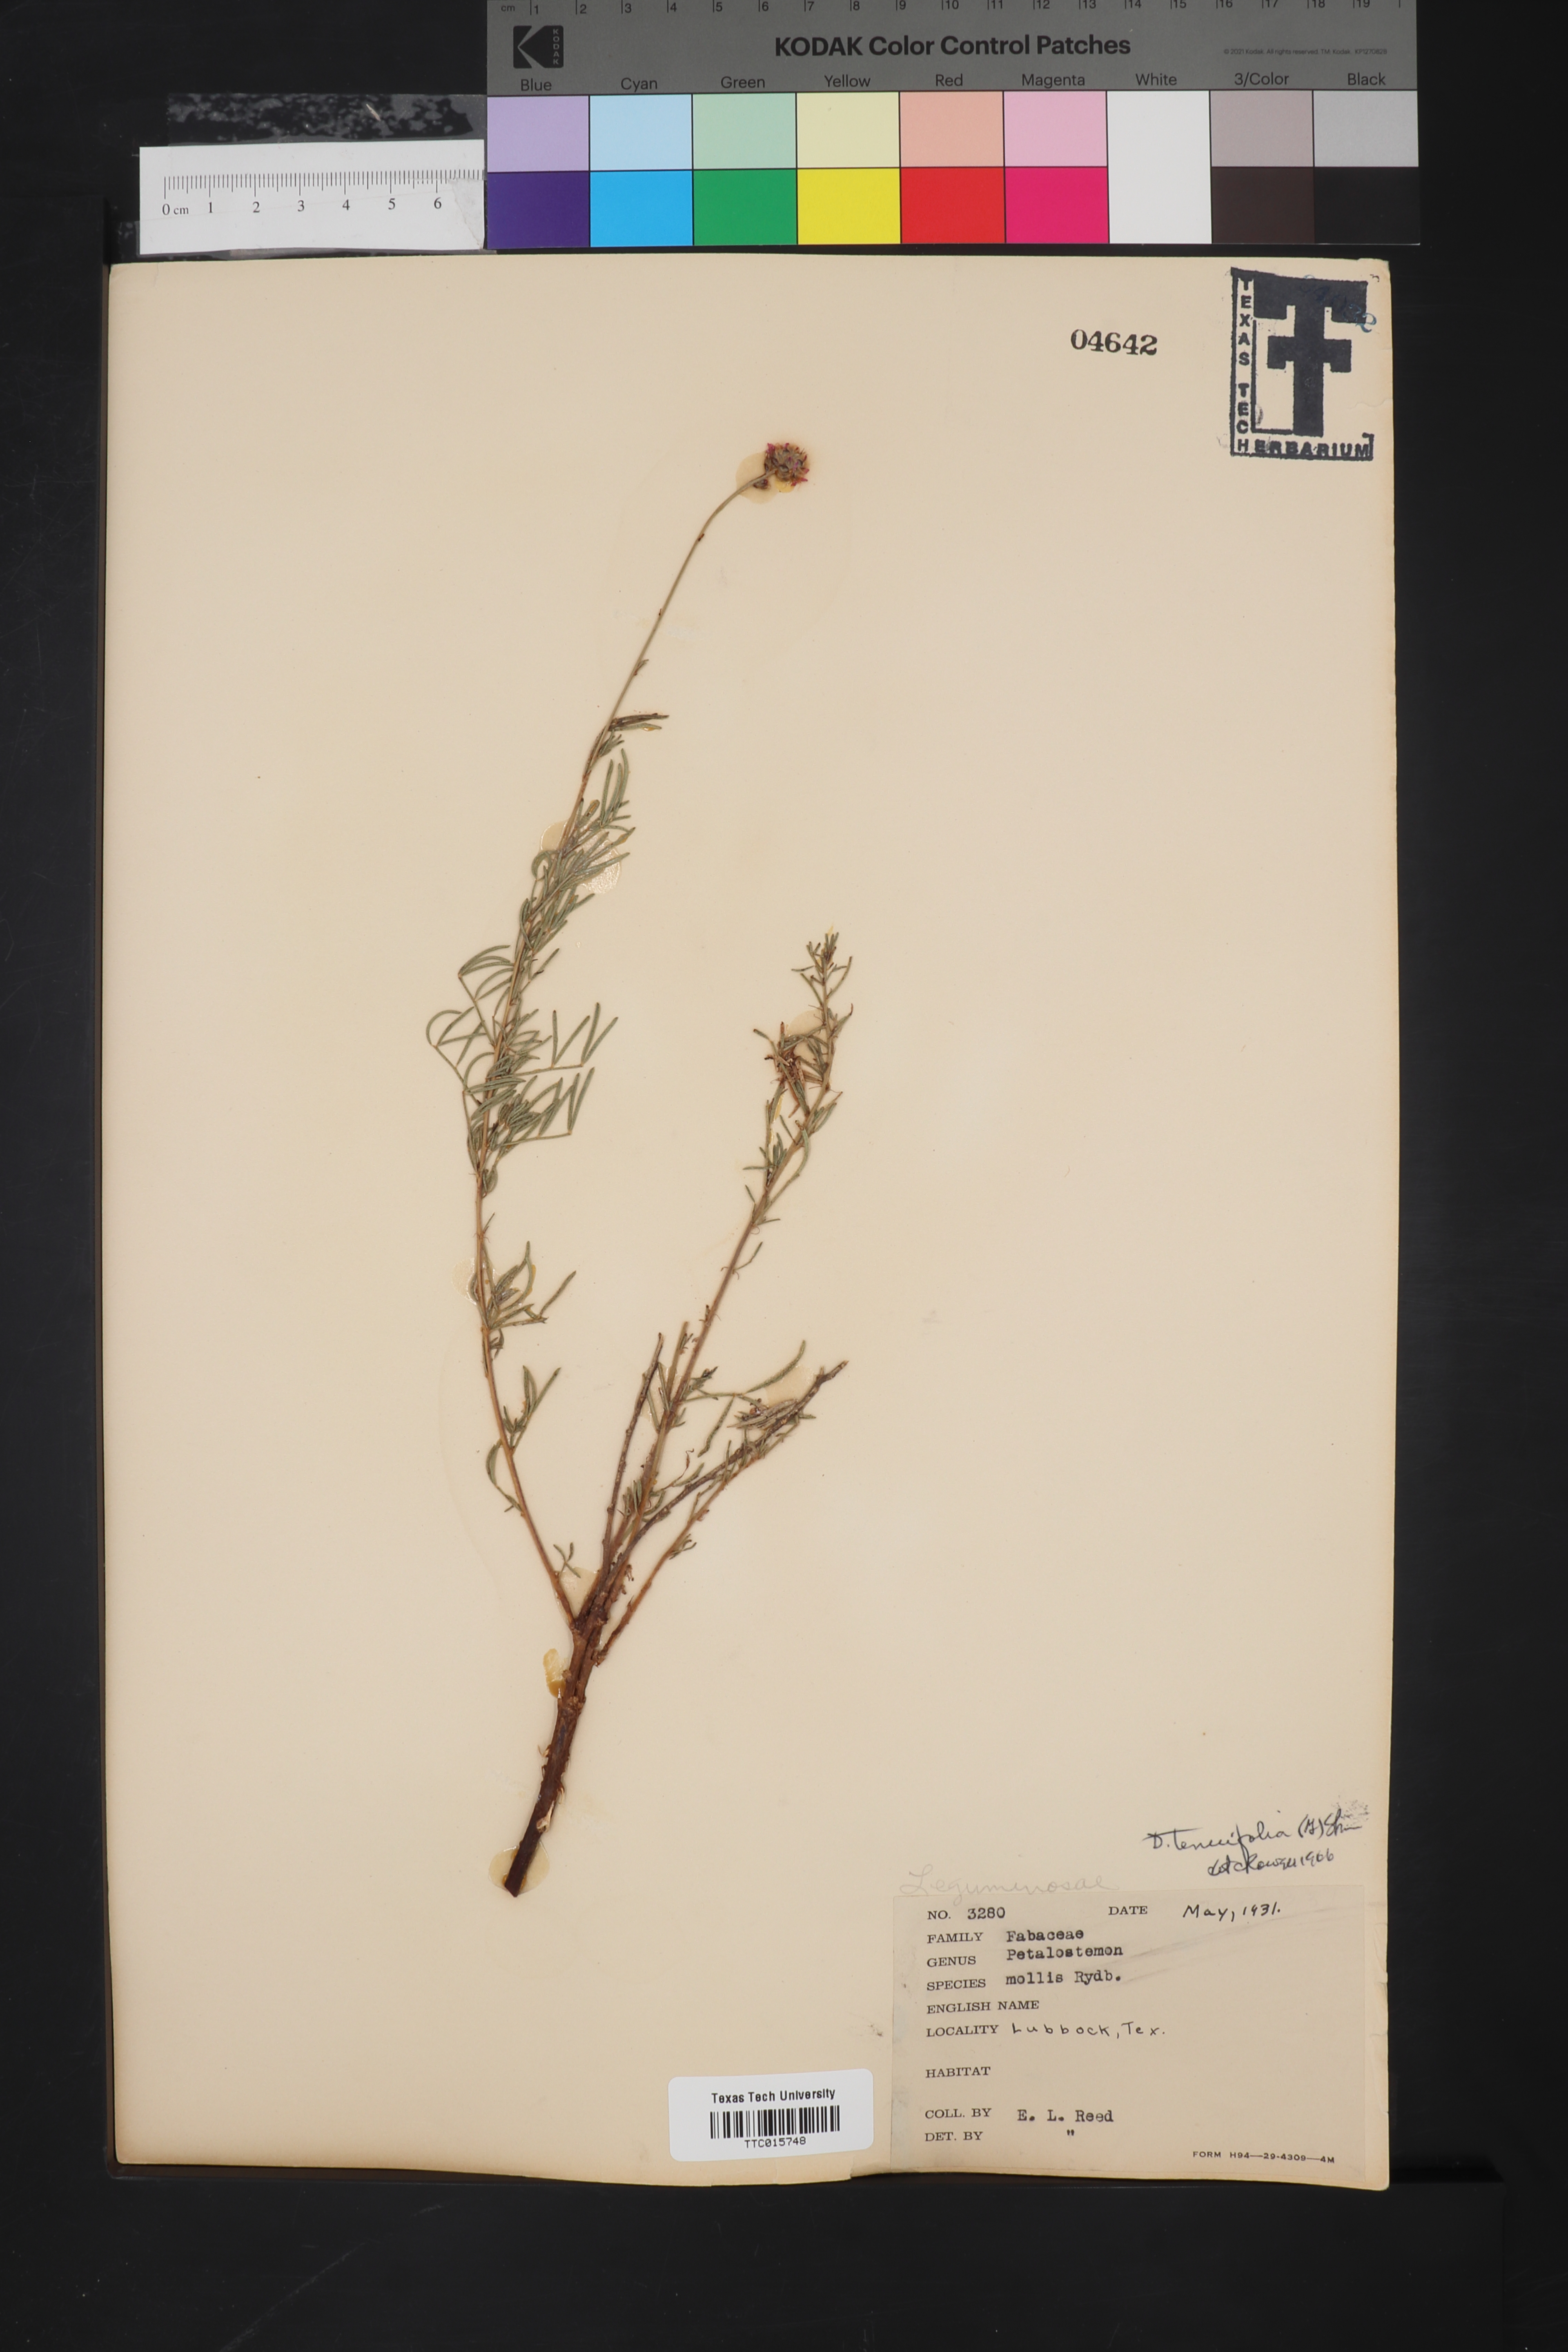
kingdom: Plantae
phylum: Tracheophyta
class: Magnoliopsida
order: Fabales
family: Fabaceae
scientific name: Fabaceae
